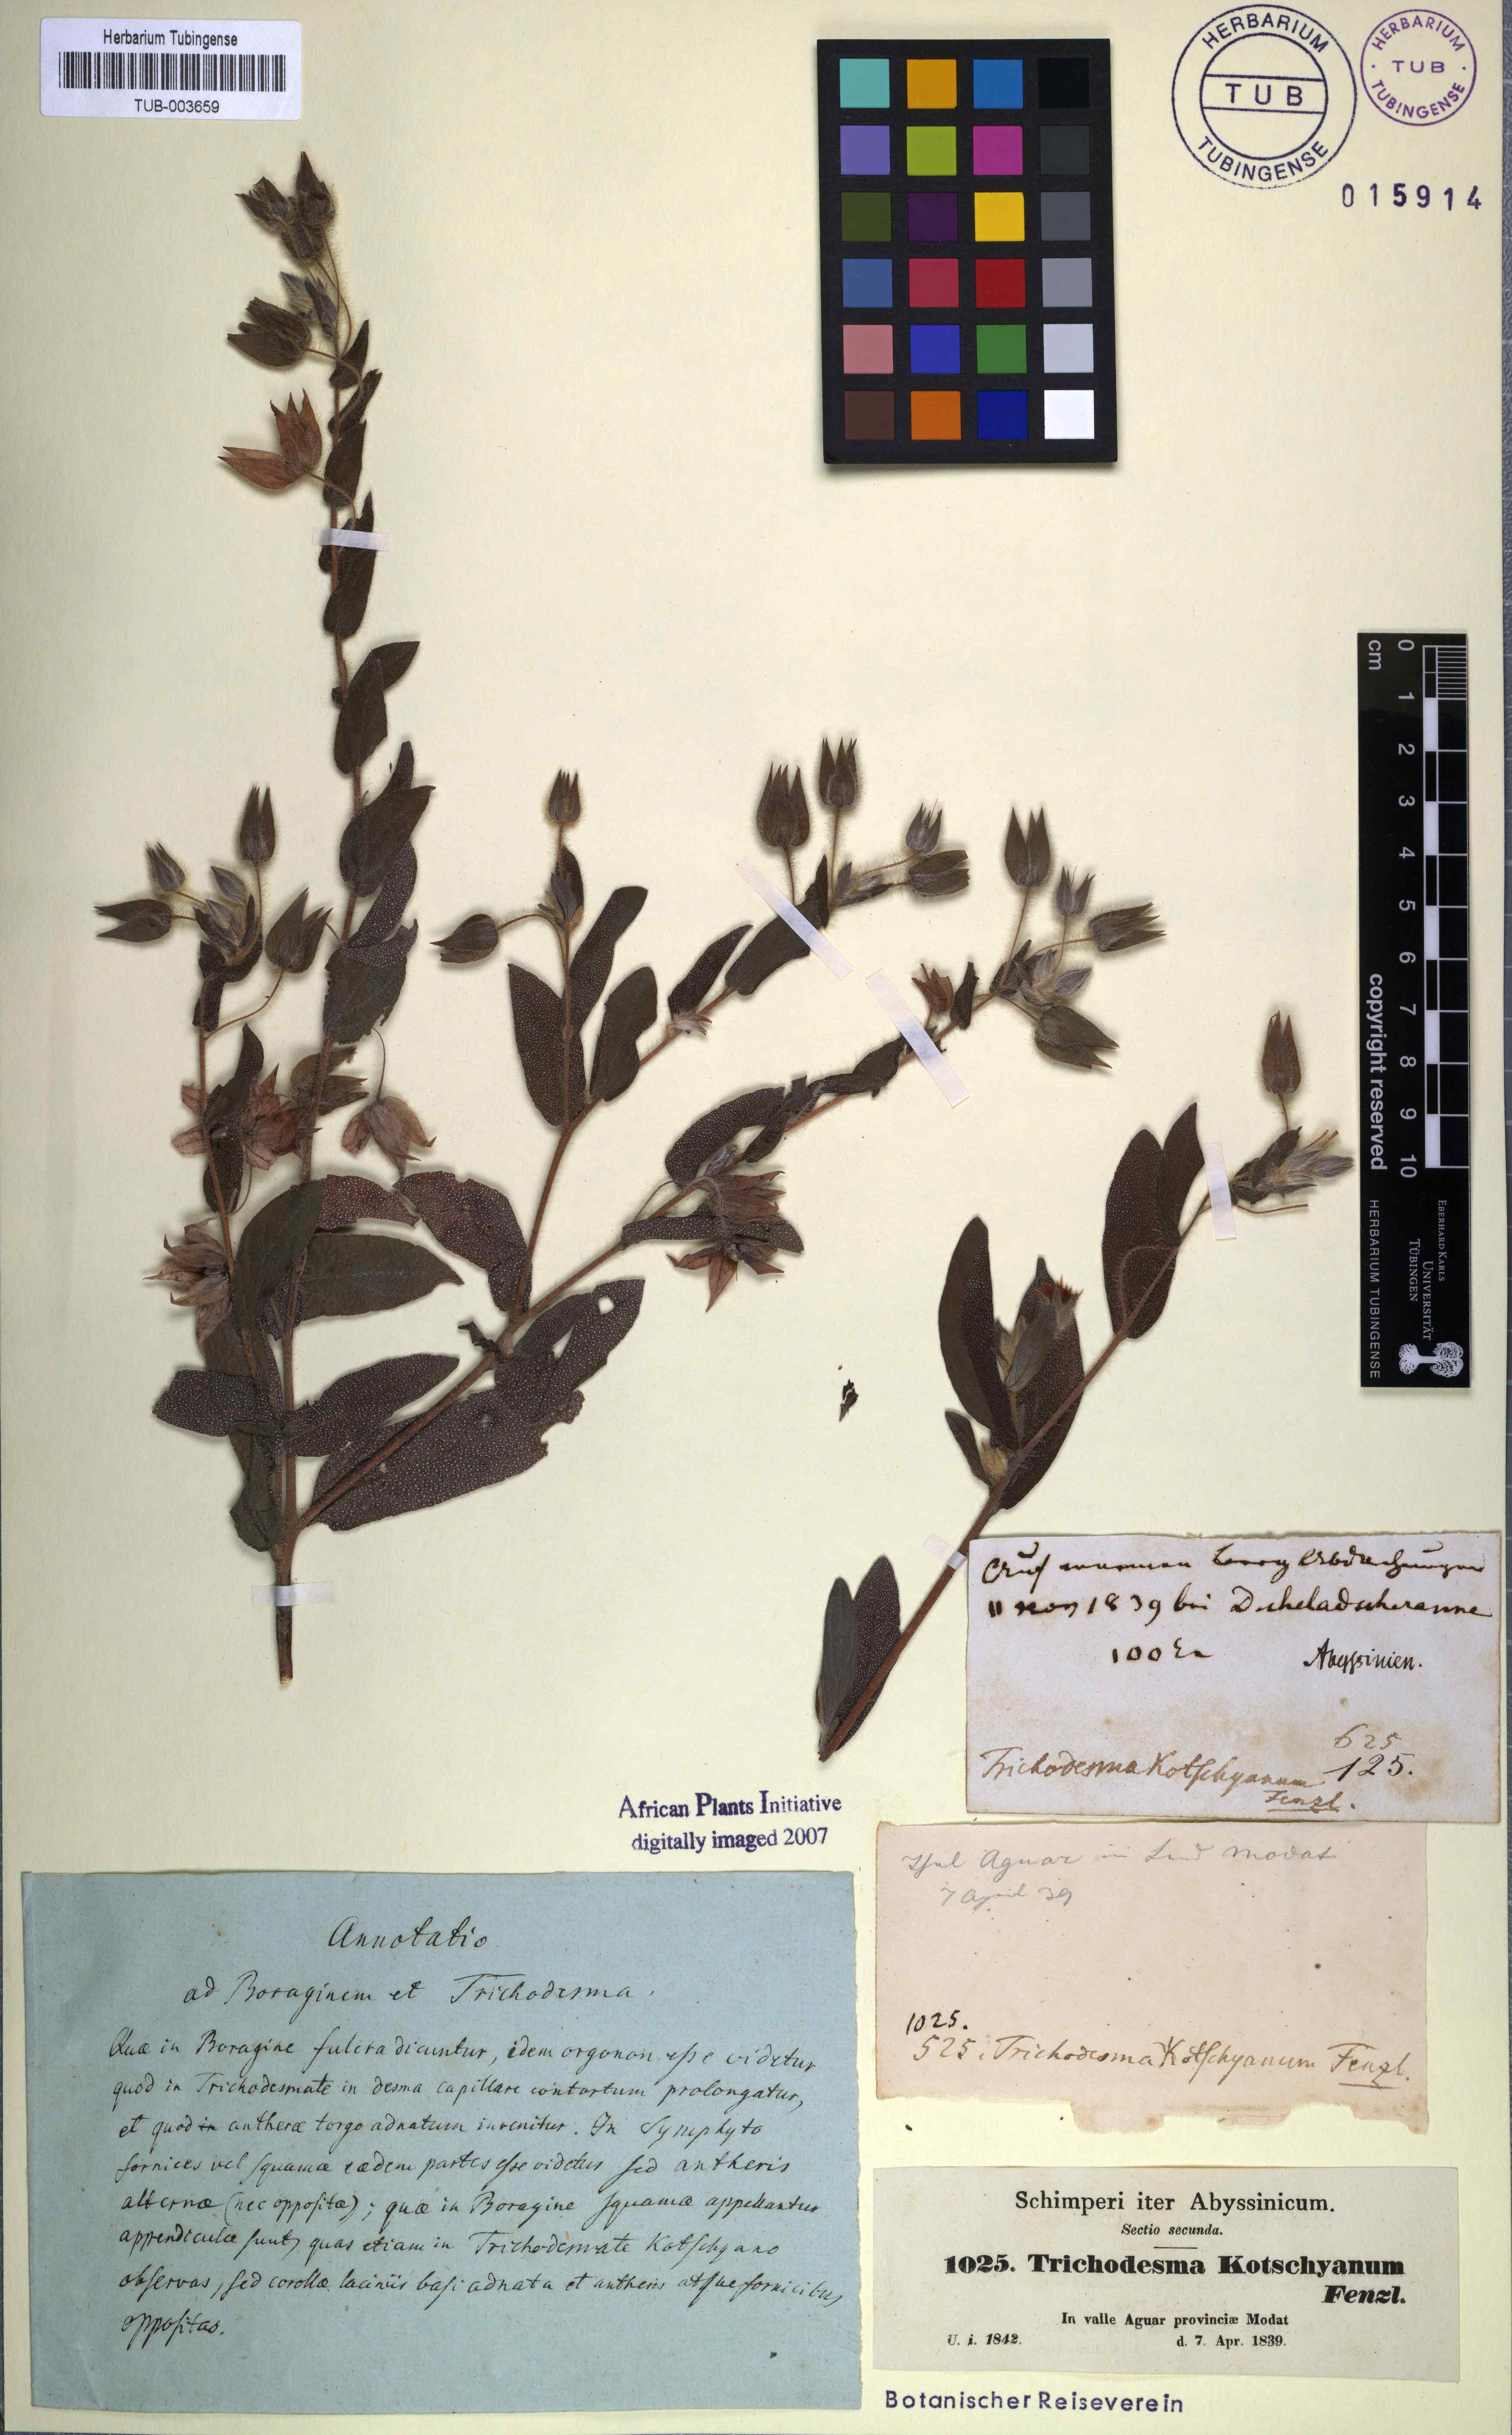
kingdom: Plantae
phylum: Tracheophyta
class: Magnoliopsida
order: Boraginales
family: Boraginaceae
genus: Trichodesma
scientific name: Trichodesma zeylanicum
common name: Camelbush
